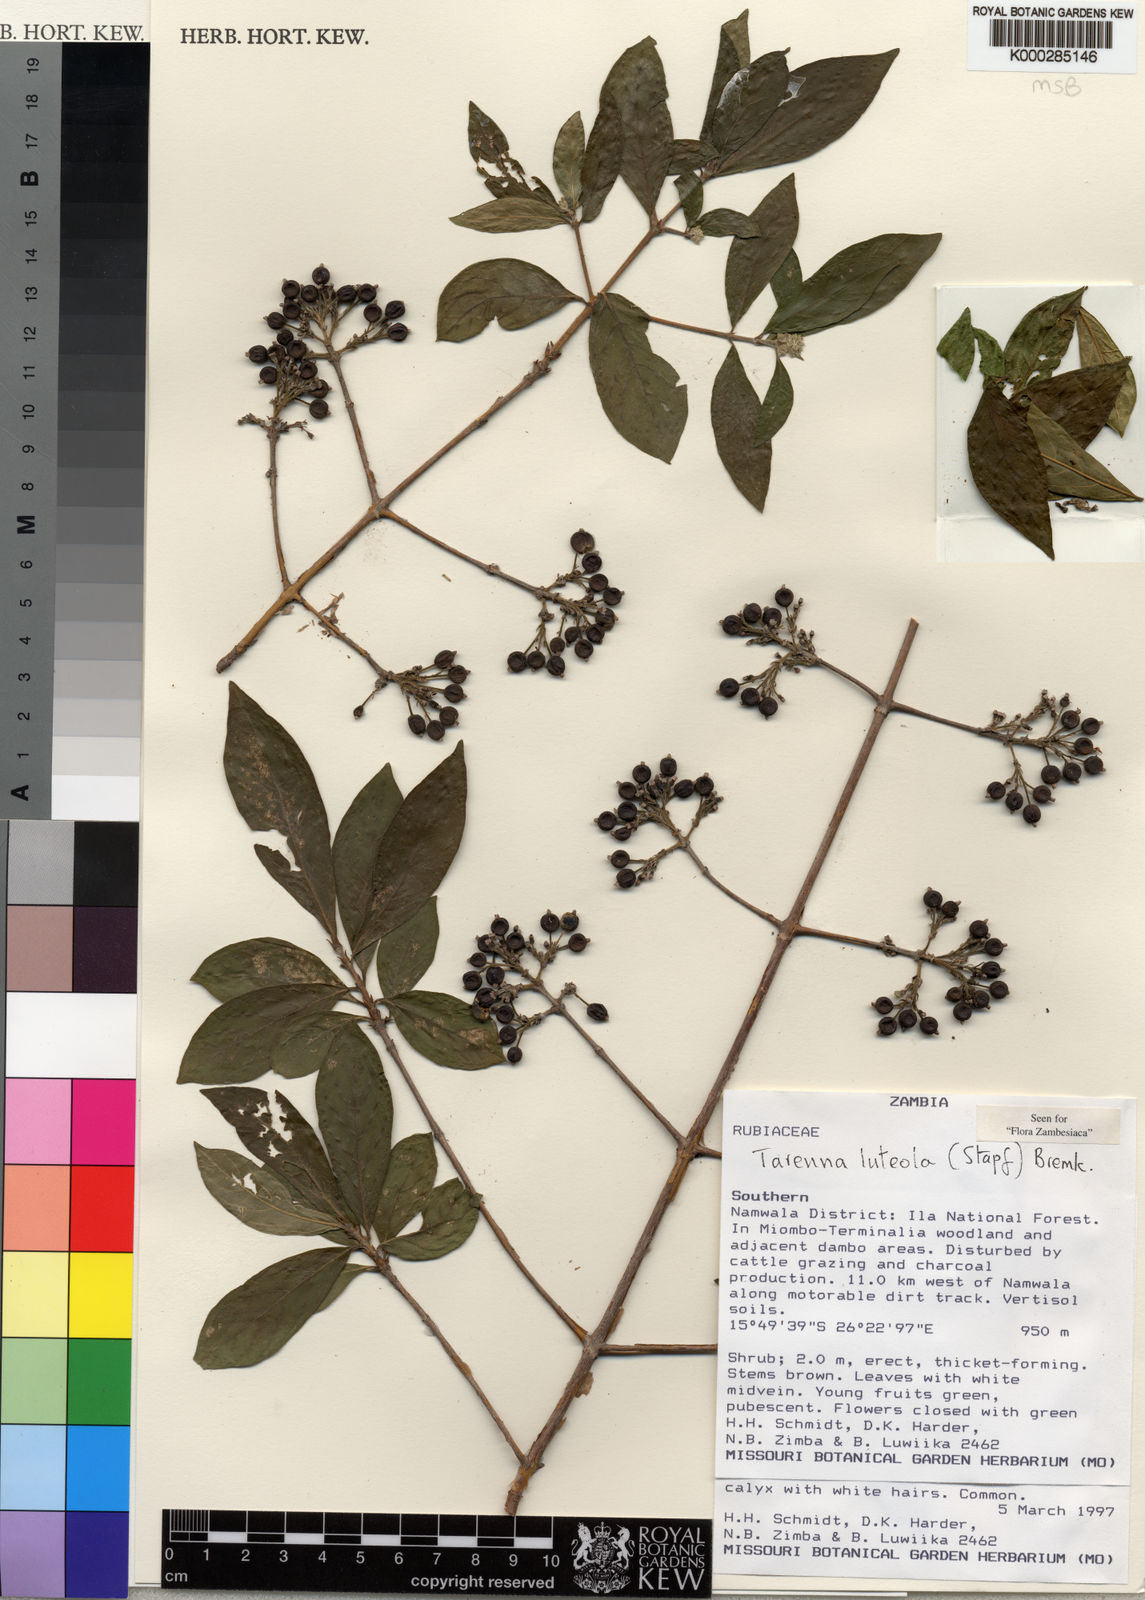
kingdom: Plantae
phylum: Tracheophyta
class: Magnoliopsida
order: Gentianales
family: Rubiaceae
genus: Tarenna
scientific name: Tarenna luteola
